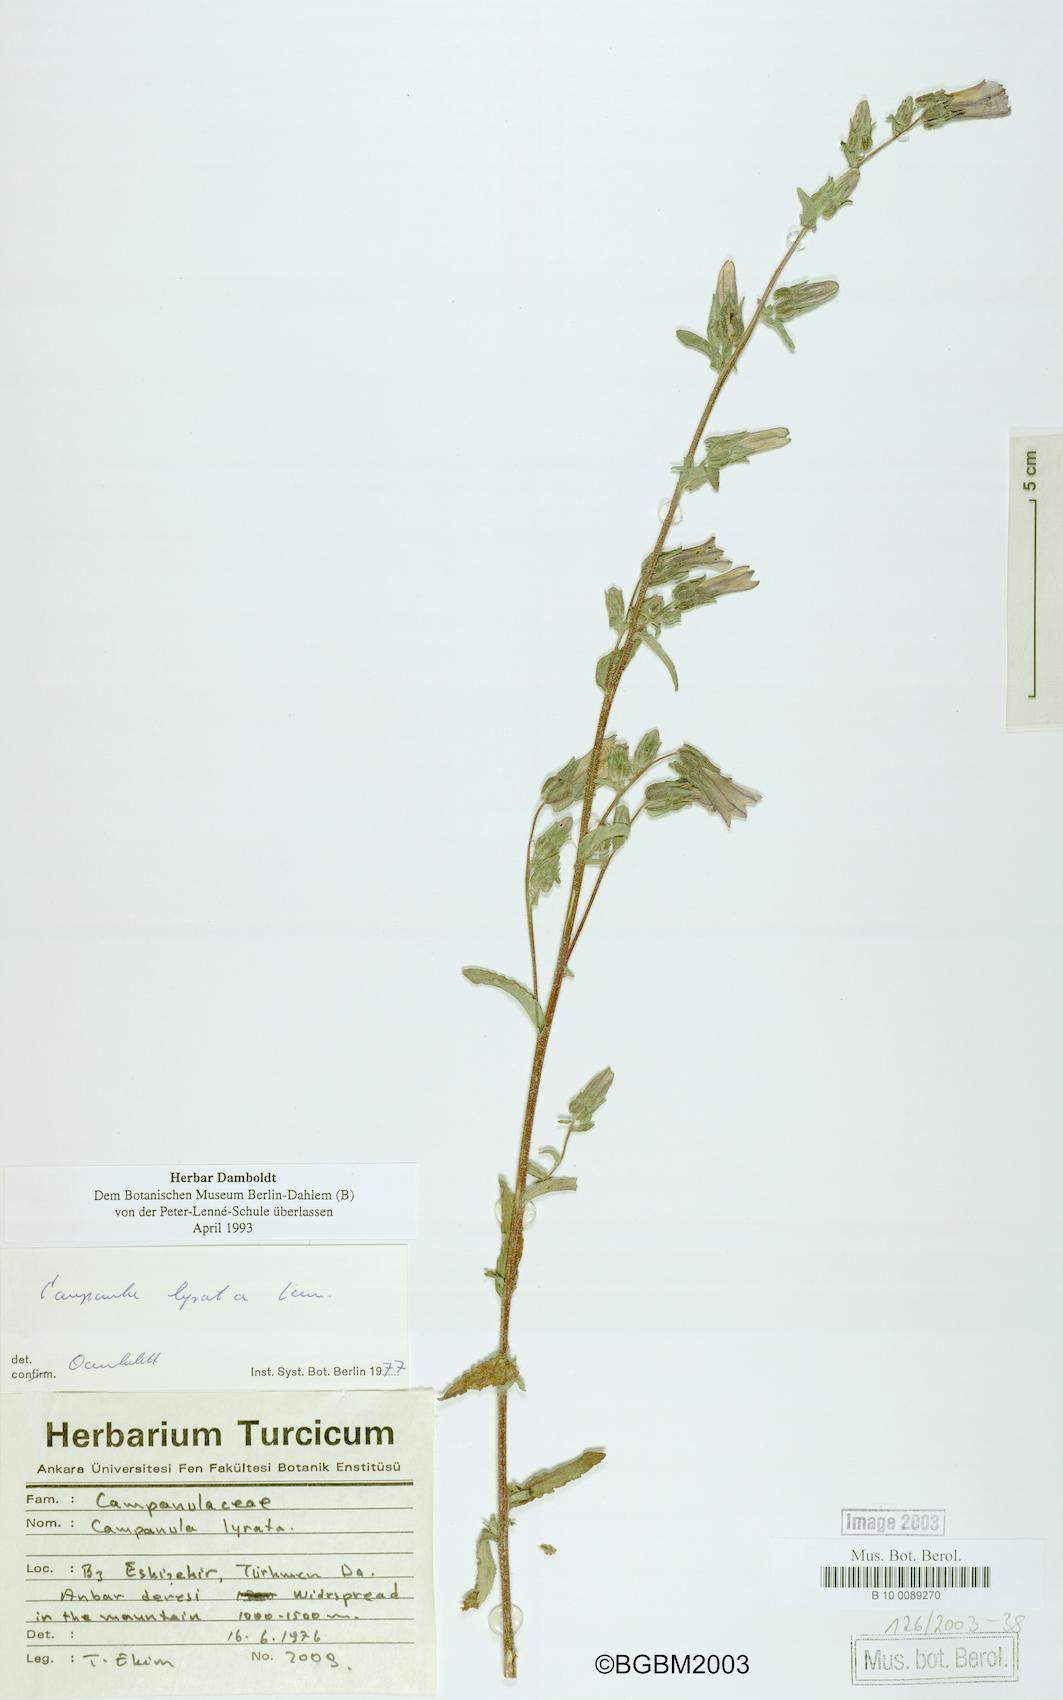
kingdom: Plantae
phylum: Tracheophyta
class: Magnoliopsida
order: Asterales
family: Campanulaceae
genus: Campanula
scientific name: Campanula lyrata
